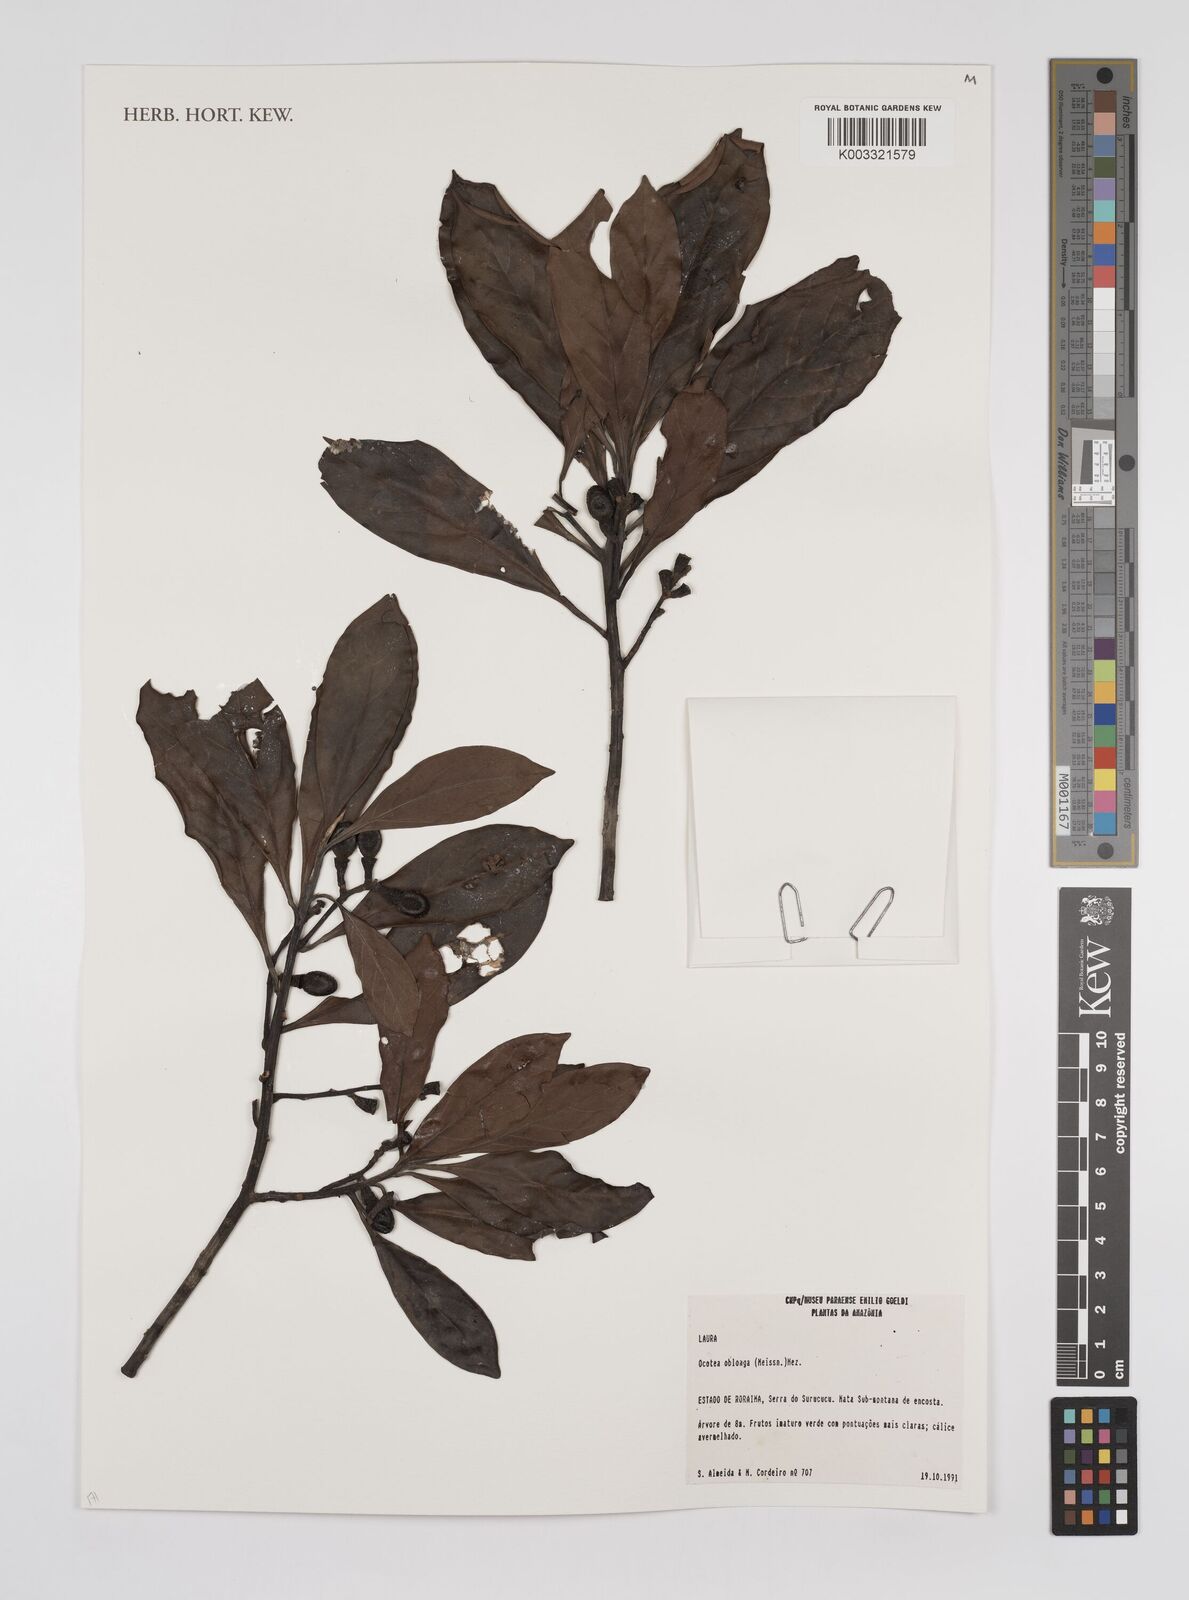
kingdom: Plantae
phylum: Tracheophyta
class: Magnoliopsida
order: Laurales
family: Lauraceae
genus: Ocotea
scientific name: Ocotea oblonga
